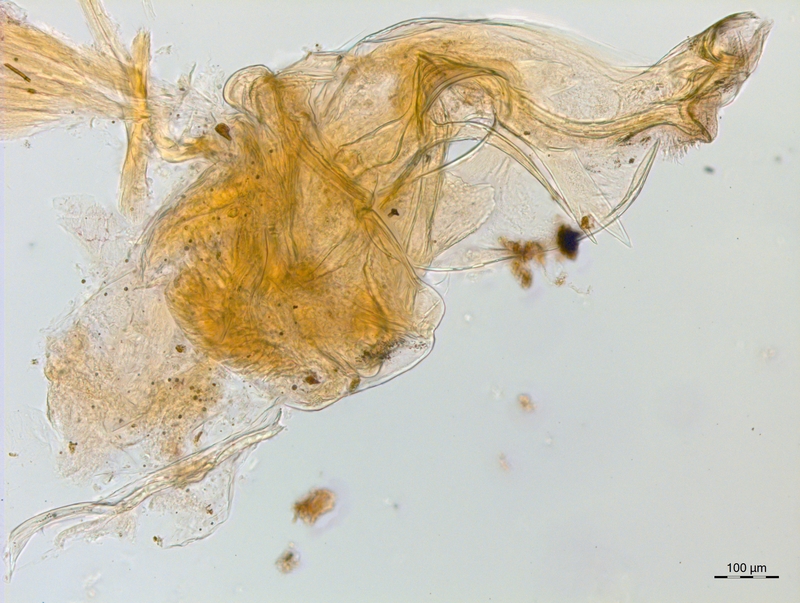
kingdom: Animalia
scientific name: Animalia
